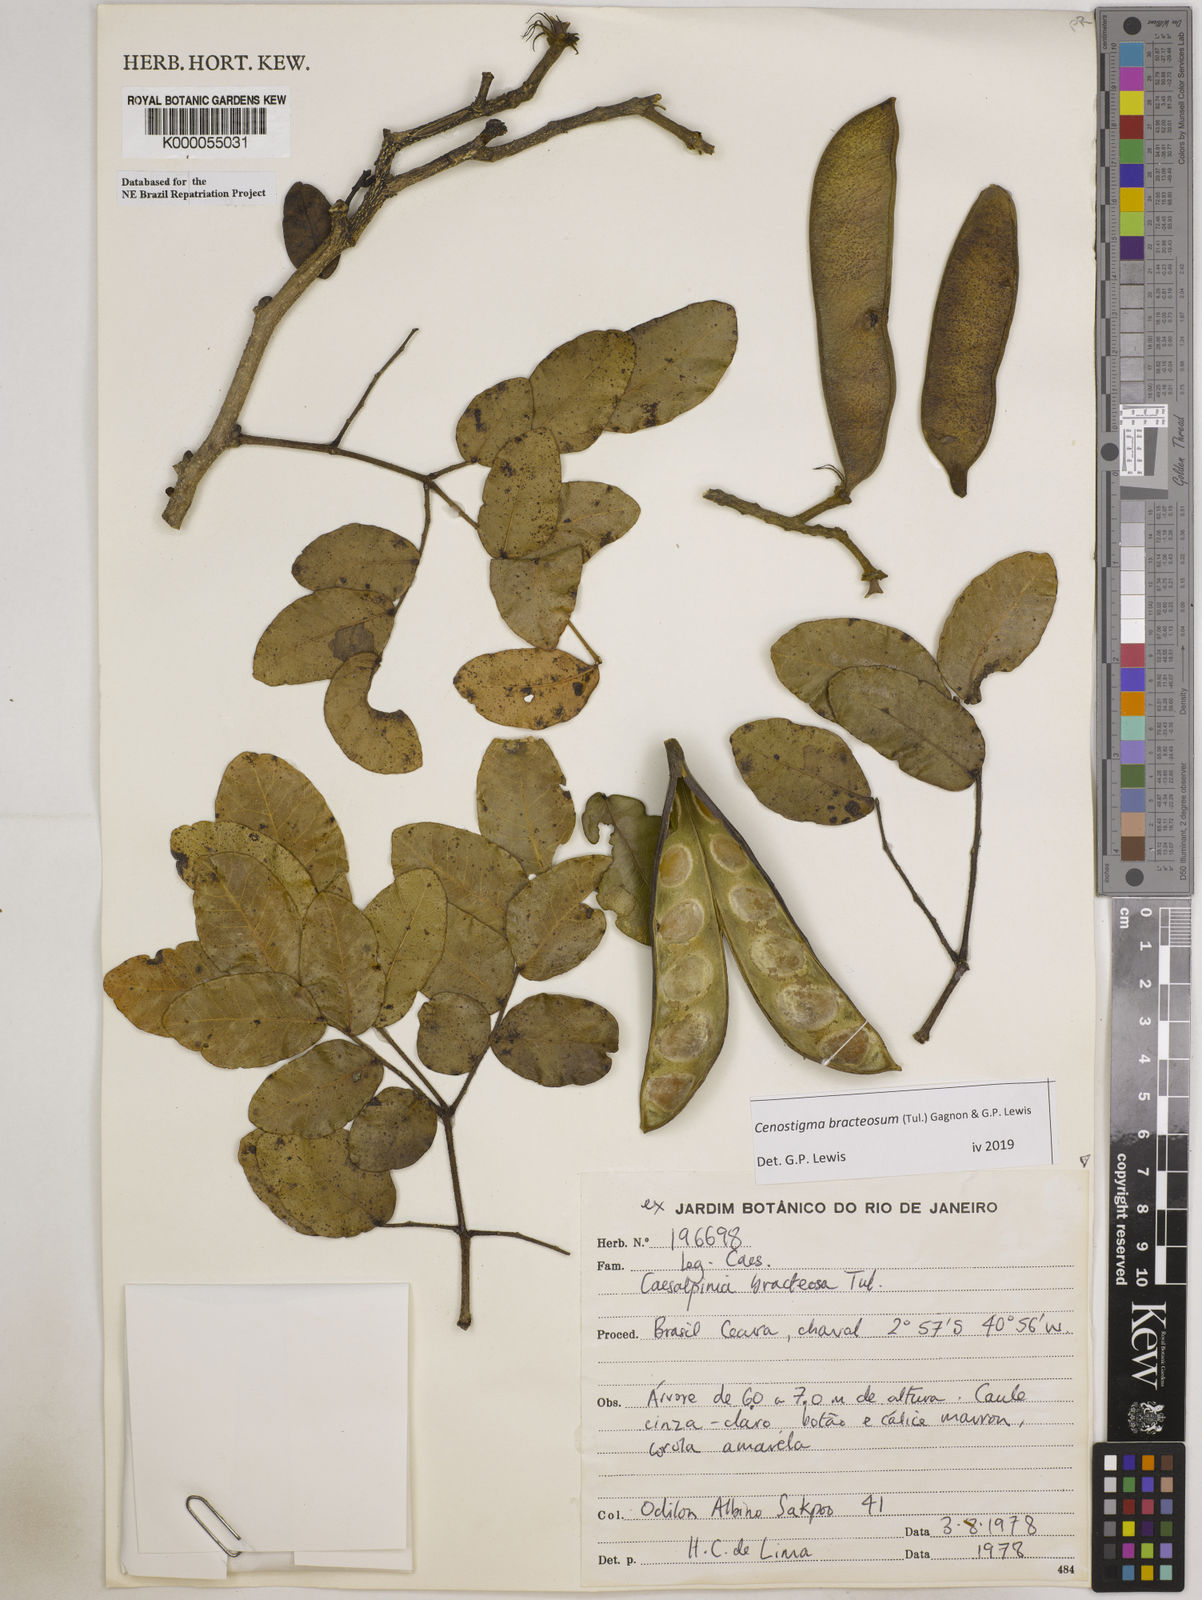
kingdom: Plantae
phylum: Tracheophyta
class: Magnoliopsida
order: Fabales
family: Fabaceae
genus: Cenostigma
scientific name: Cenostigma bracteosum
